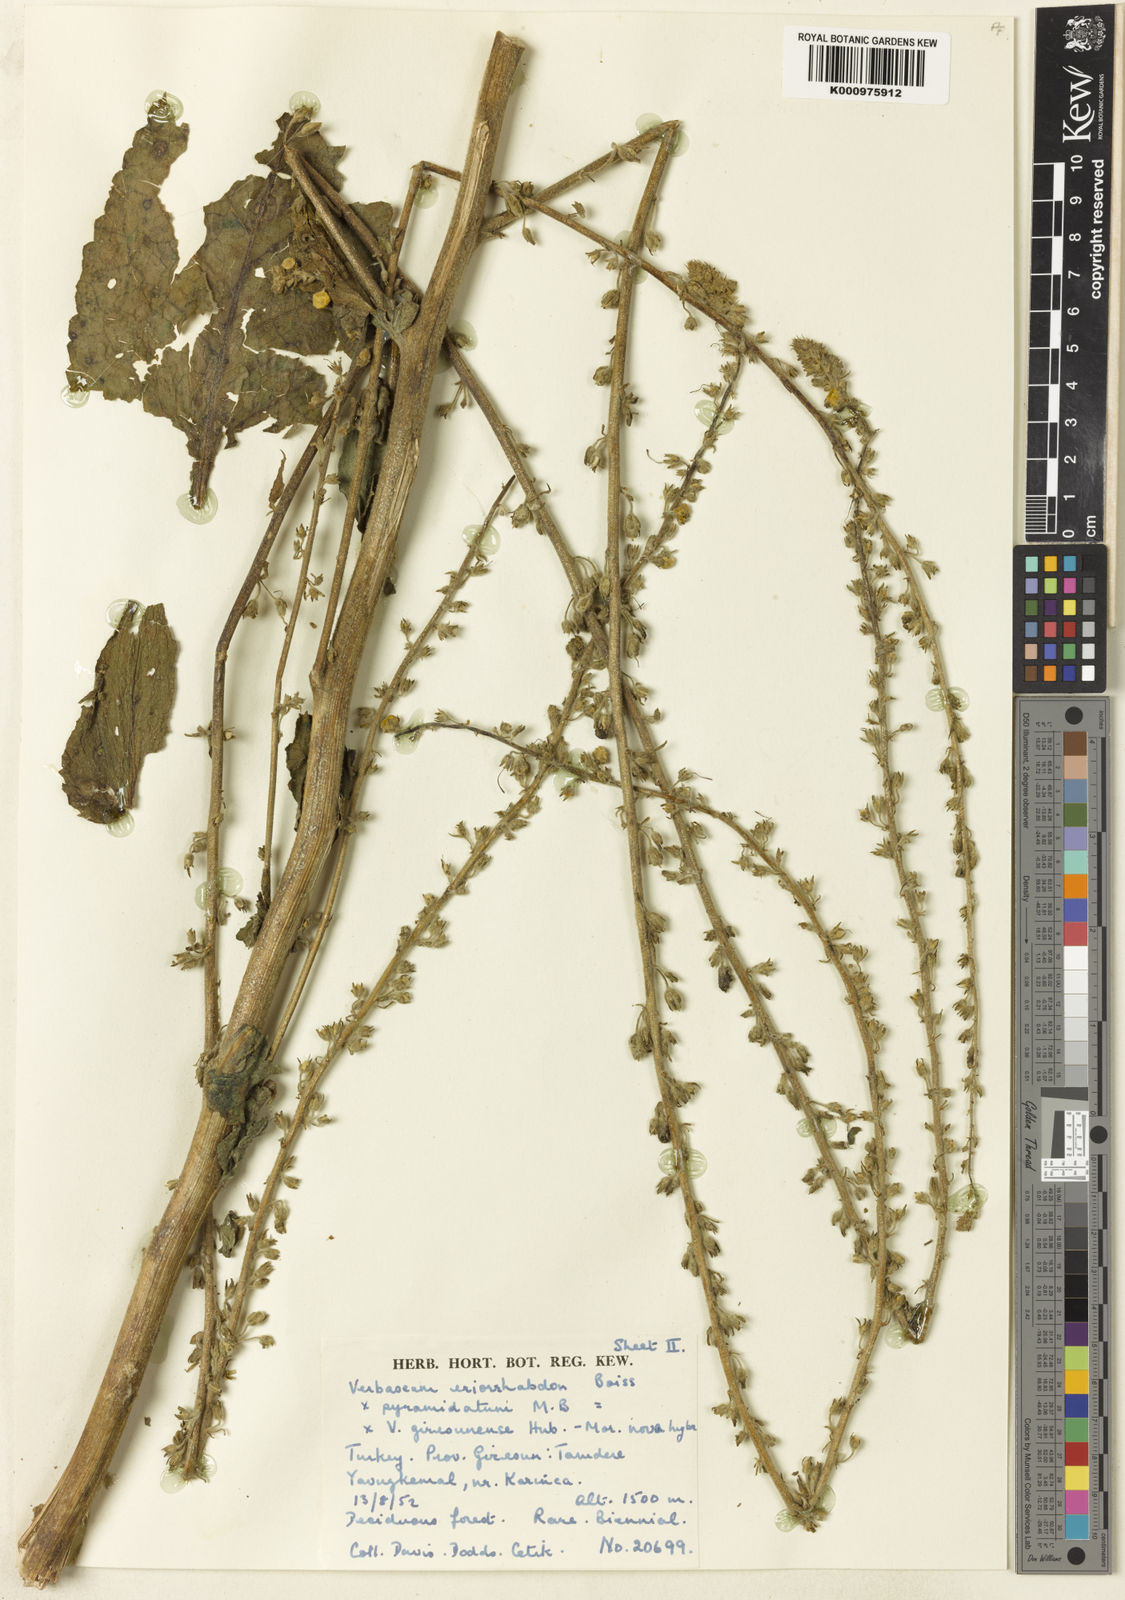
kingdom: Plantae
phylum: Tracheophyta
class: Magnoliopsida
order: Lamiales
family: Scrophulariaceae
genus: Verbascum
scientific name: Verbascum giresunense
